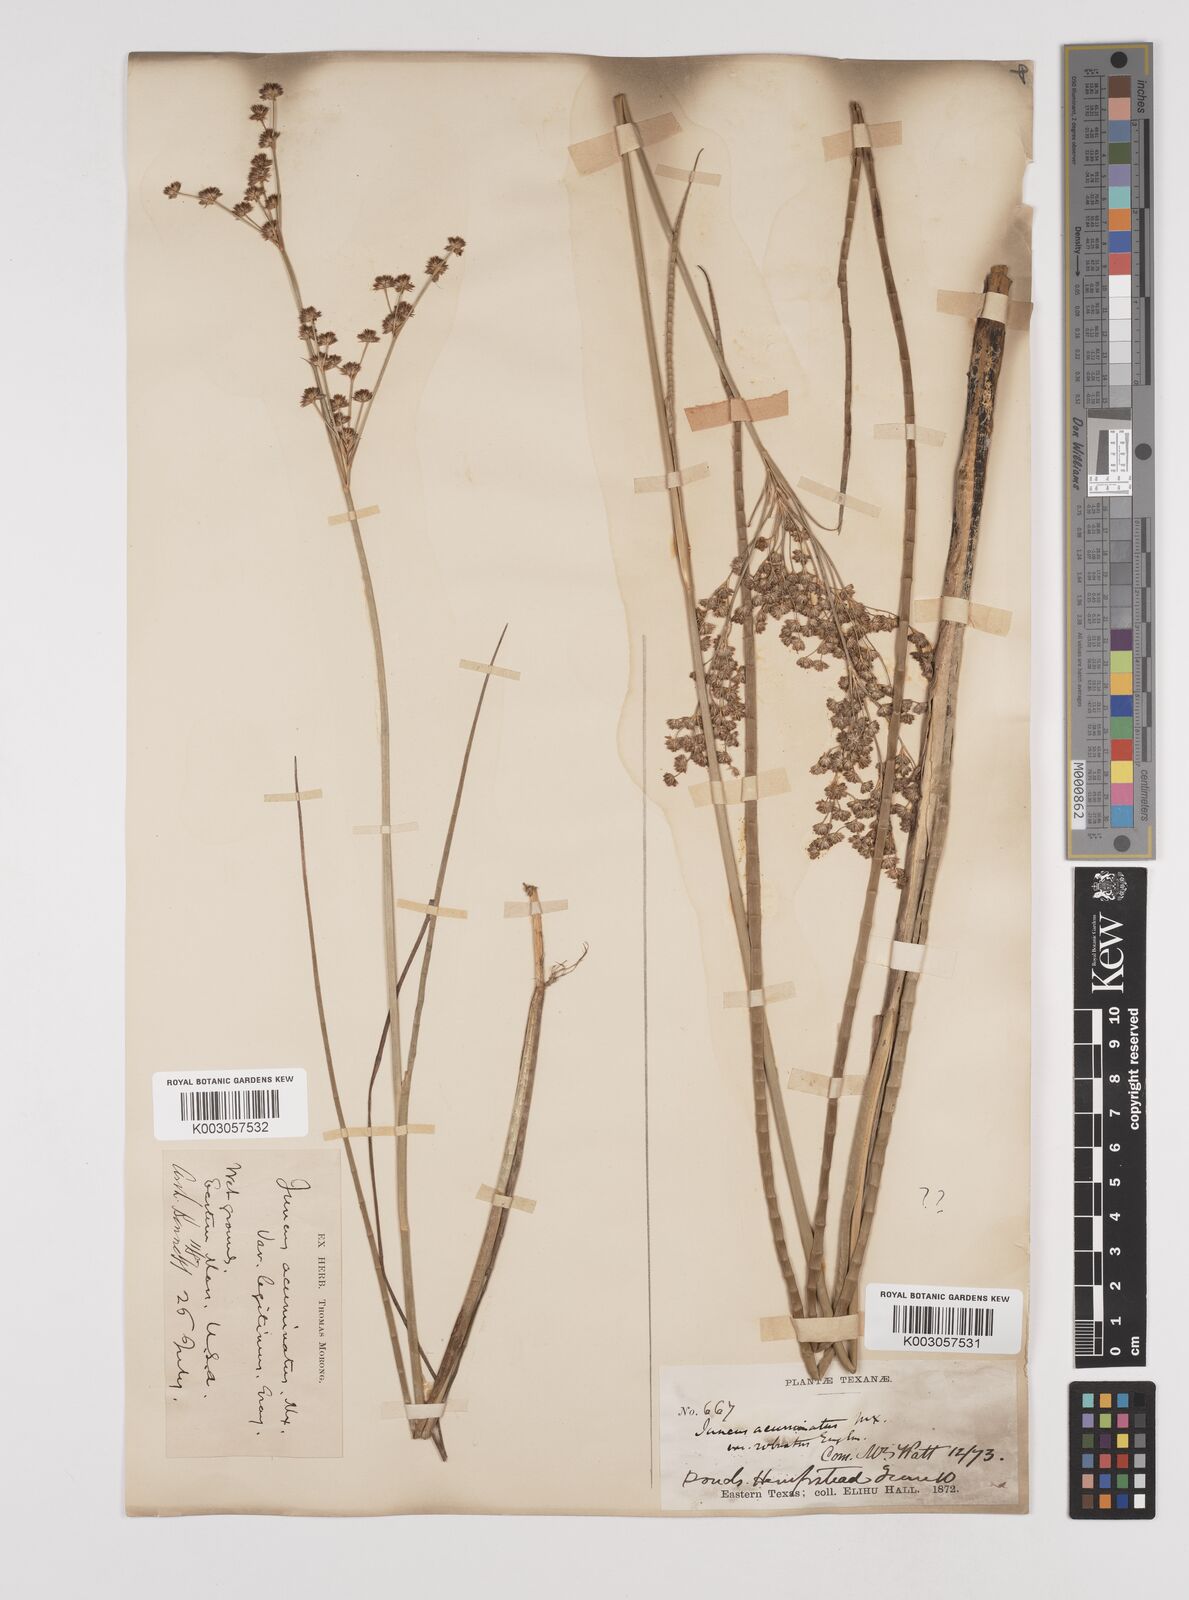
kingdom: Plantae
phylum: Tracheophyta
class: Liliopsida
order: Poales
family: Juncaceae
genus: Juncus
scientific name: Juncus acuminatus
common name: Knotty-leaved rush
